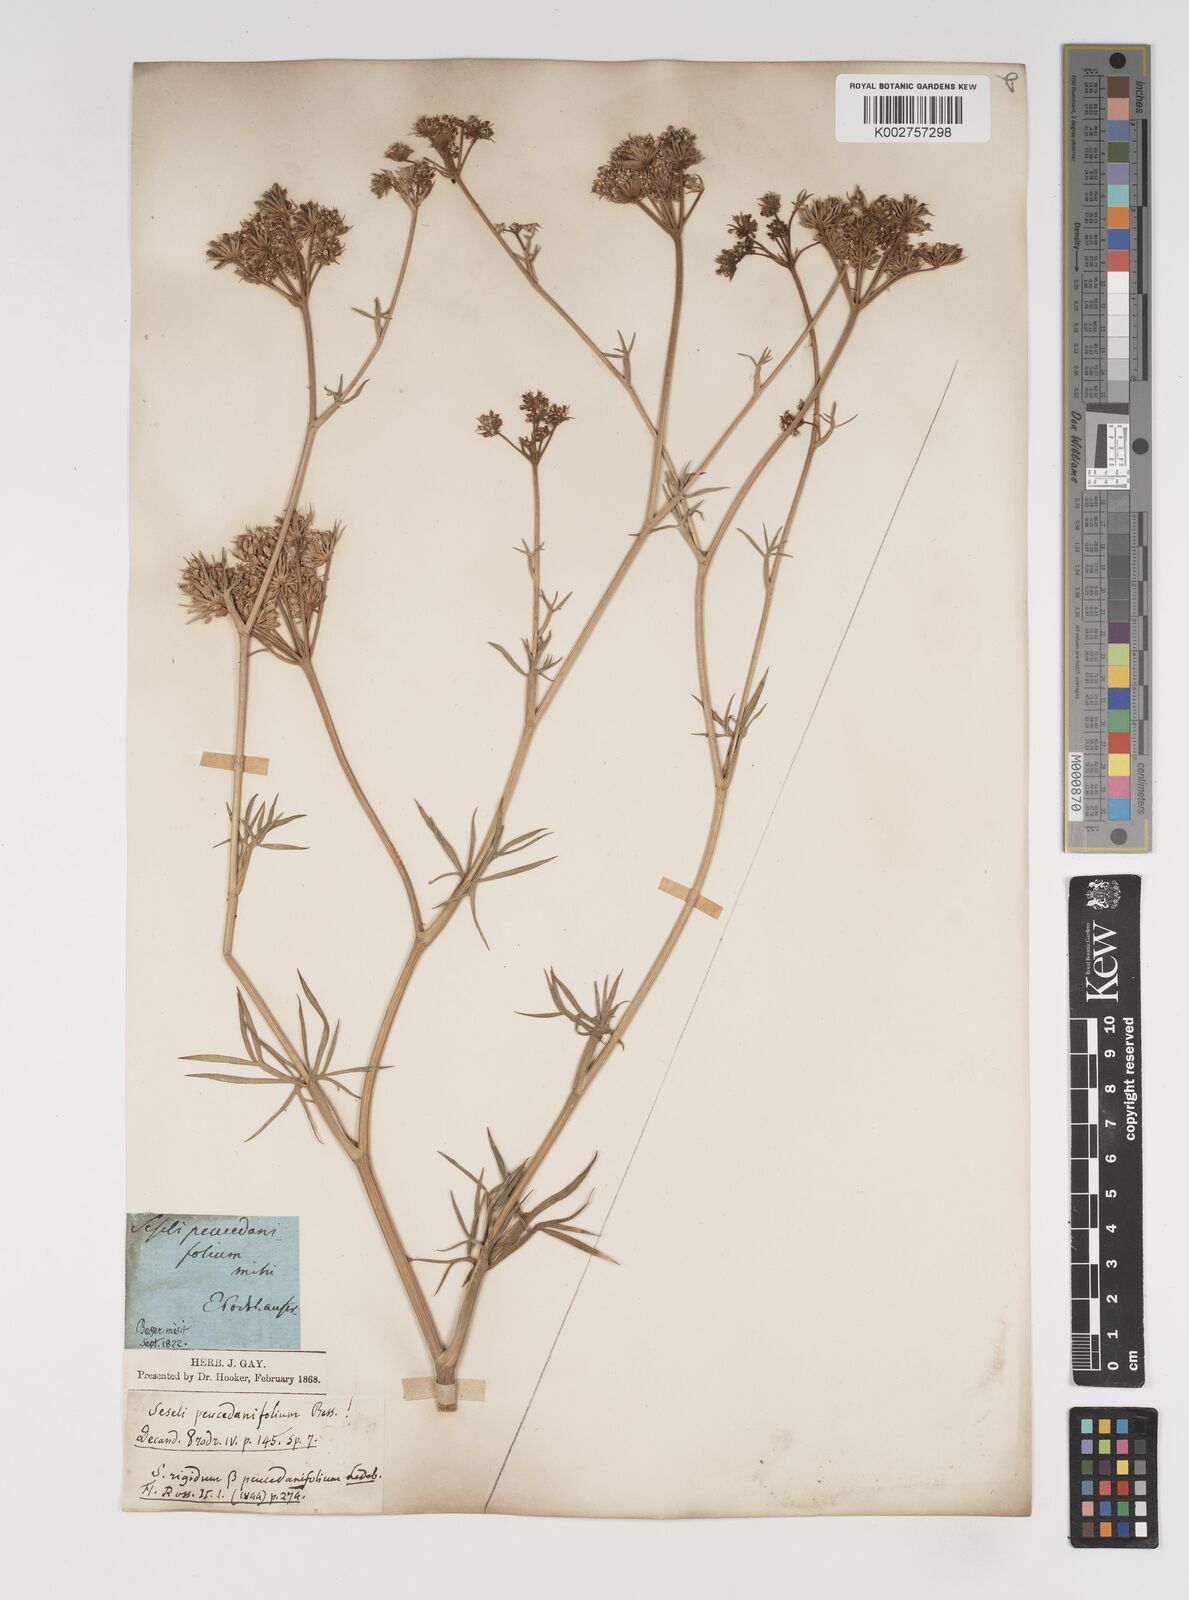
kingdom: Plantae
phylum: Tracheophyta
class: Magnoliopsida
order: Apiales
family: Apiaceae
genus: Seseli
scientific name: Seseli besserianum
